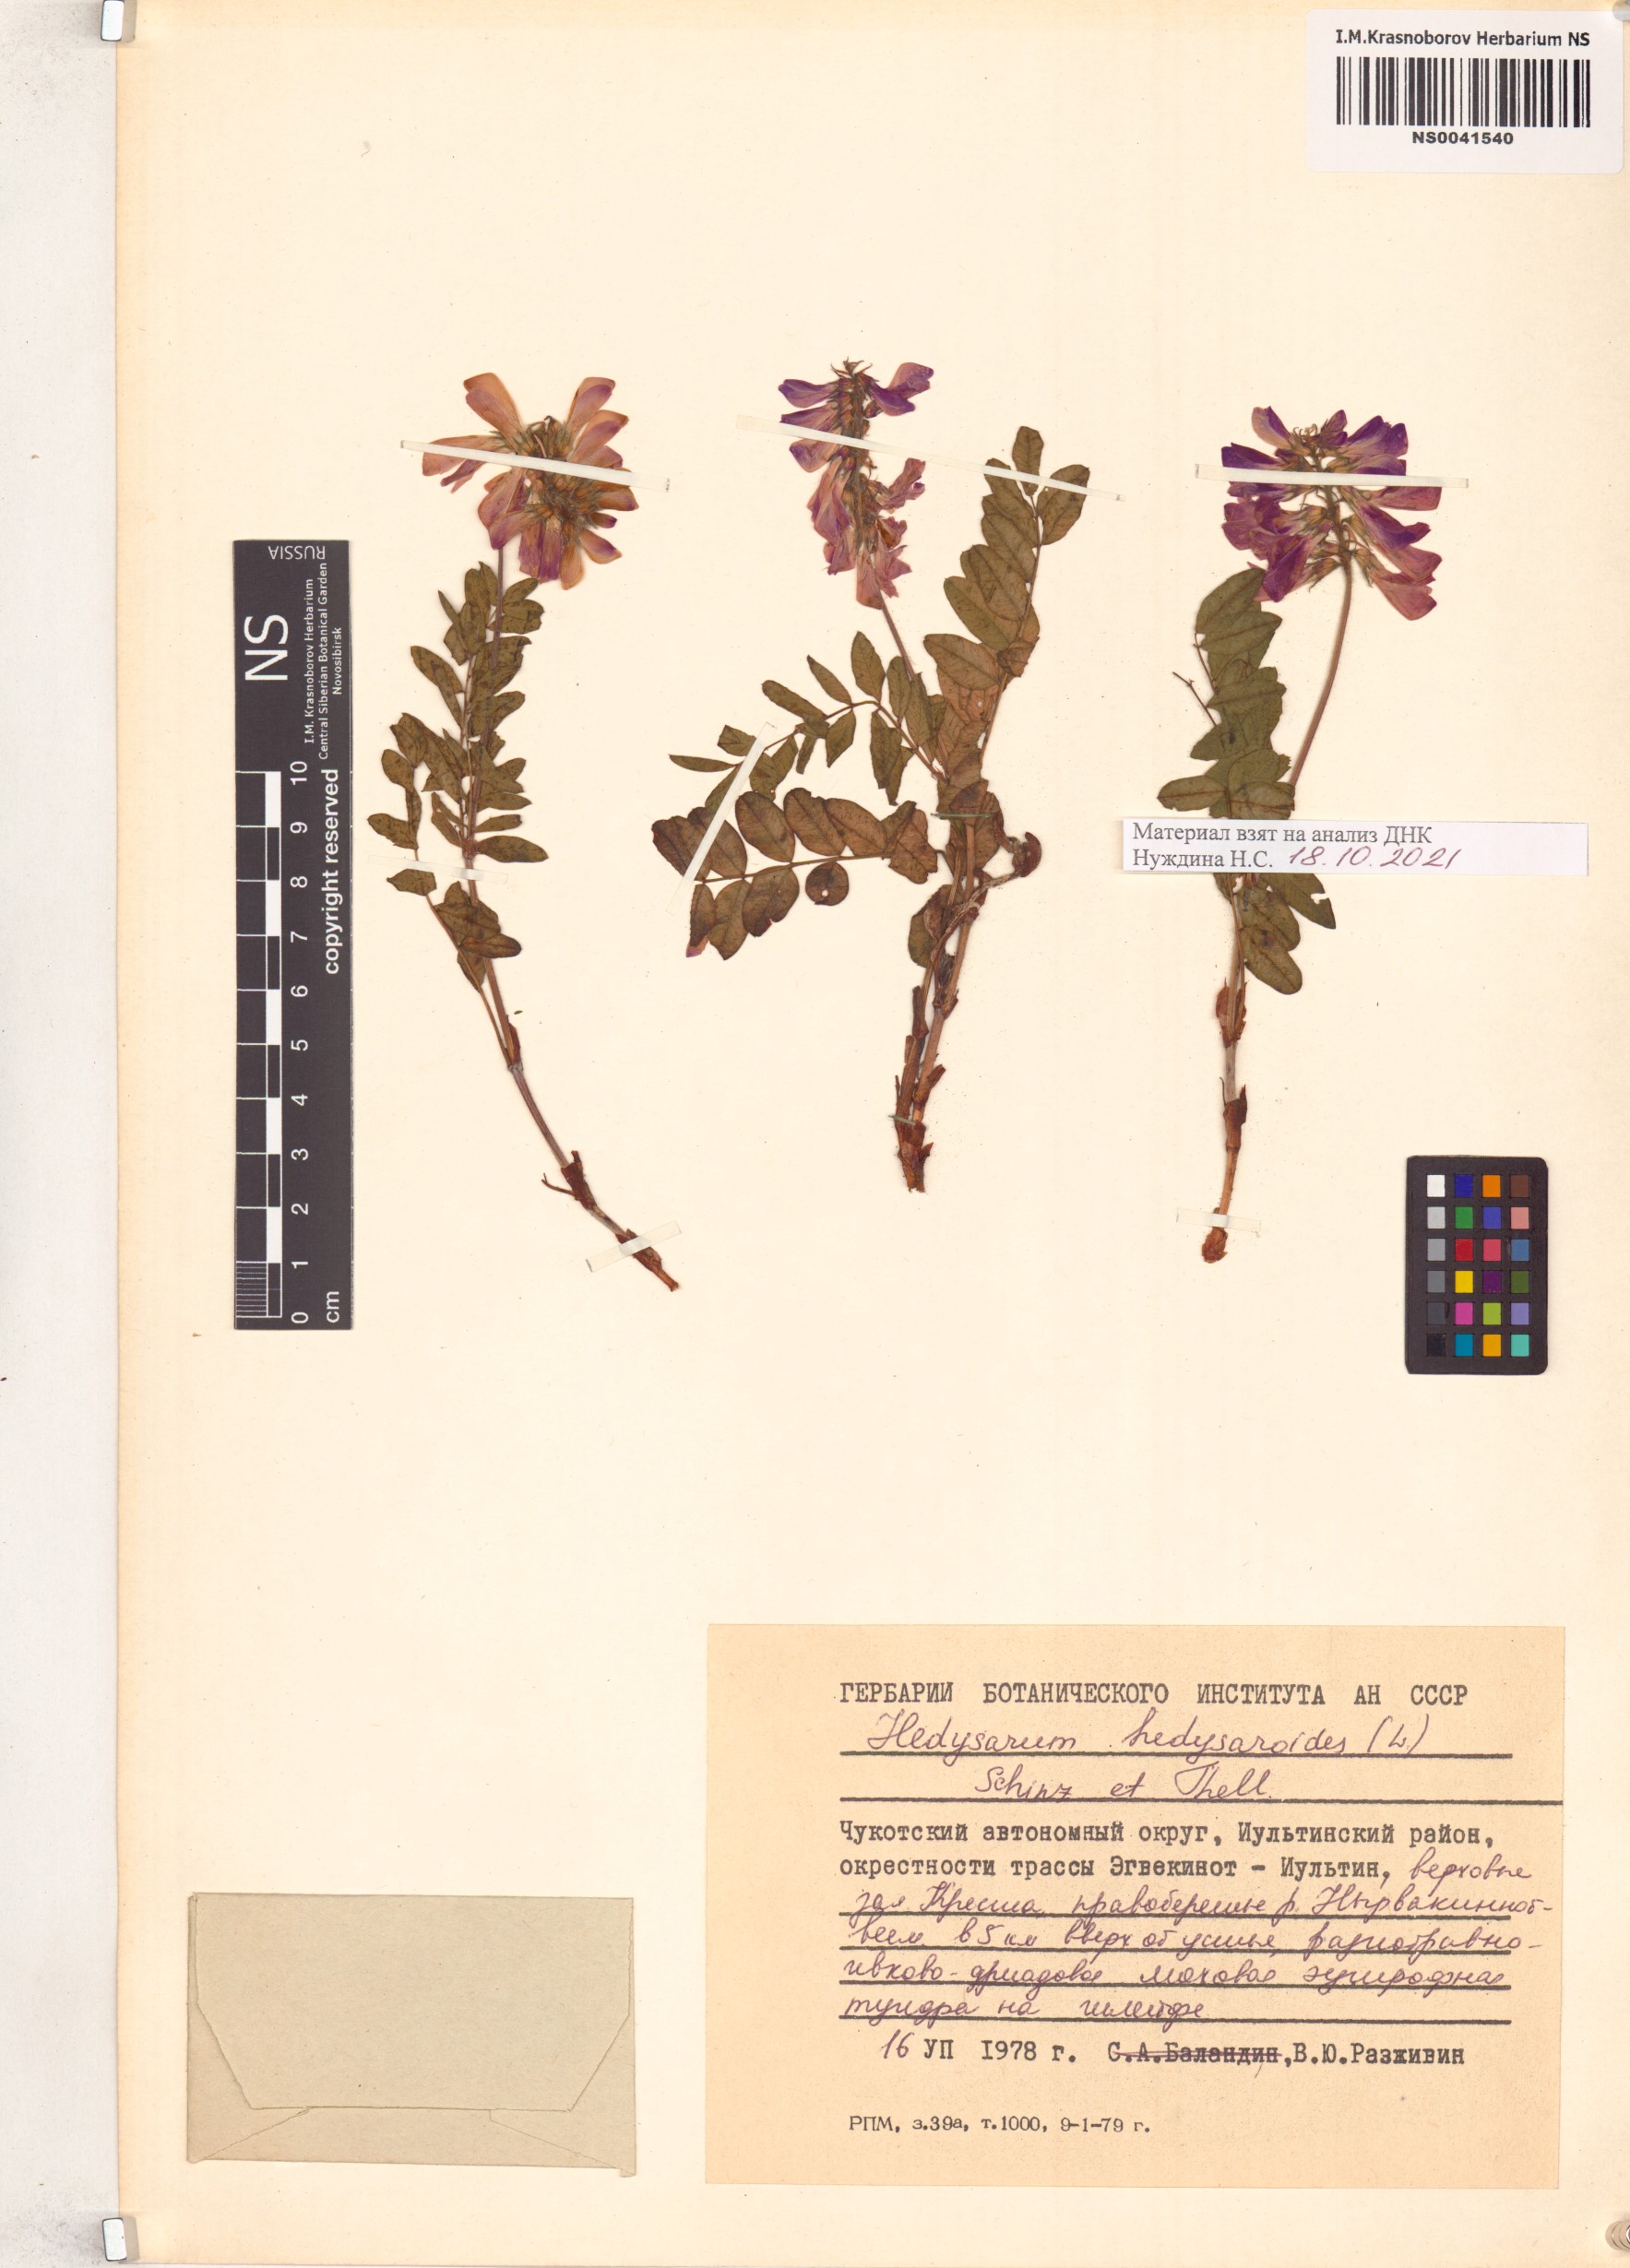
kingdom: Plantae
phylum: Tracheophyta
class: Magnoliopsida
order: Fabales
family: Fabaceae
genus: Hedysarum
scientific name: Hedysarum hedysaroides
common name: Alpine french-honeysuckle
